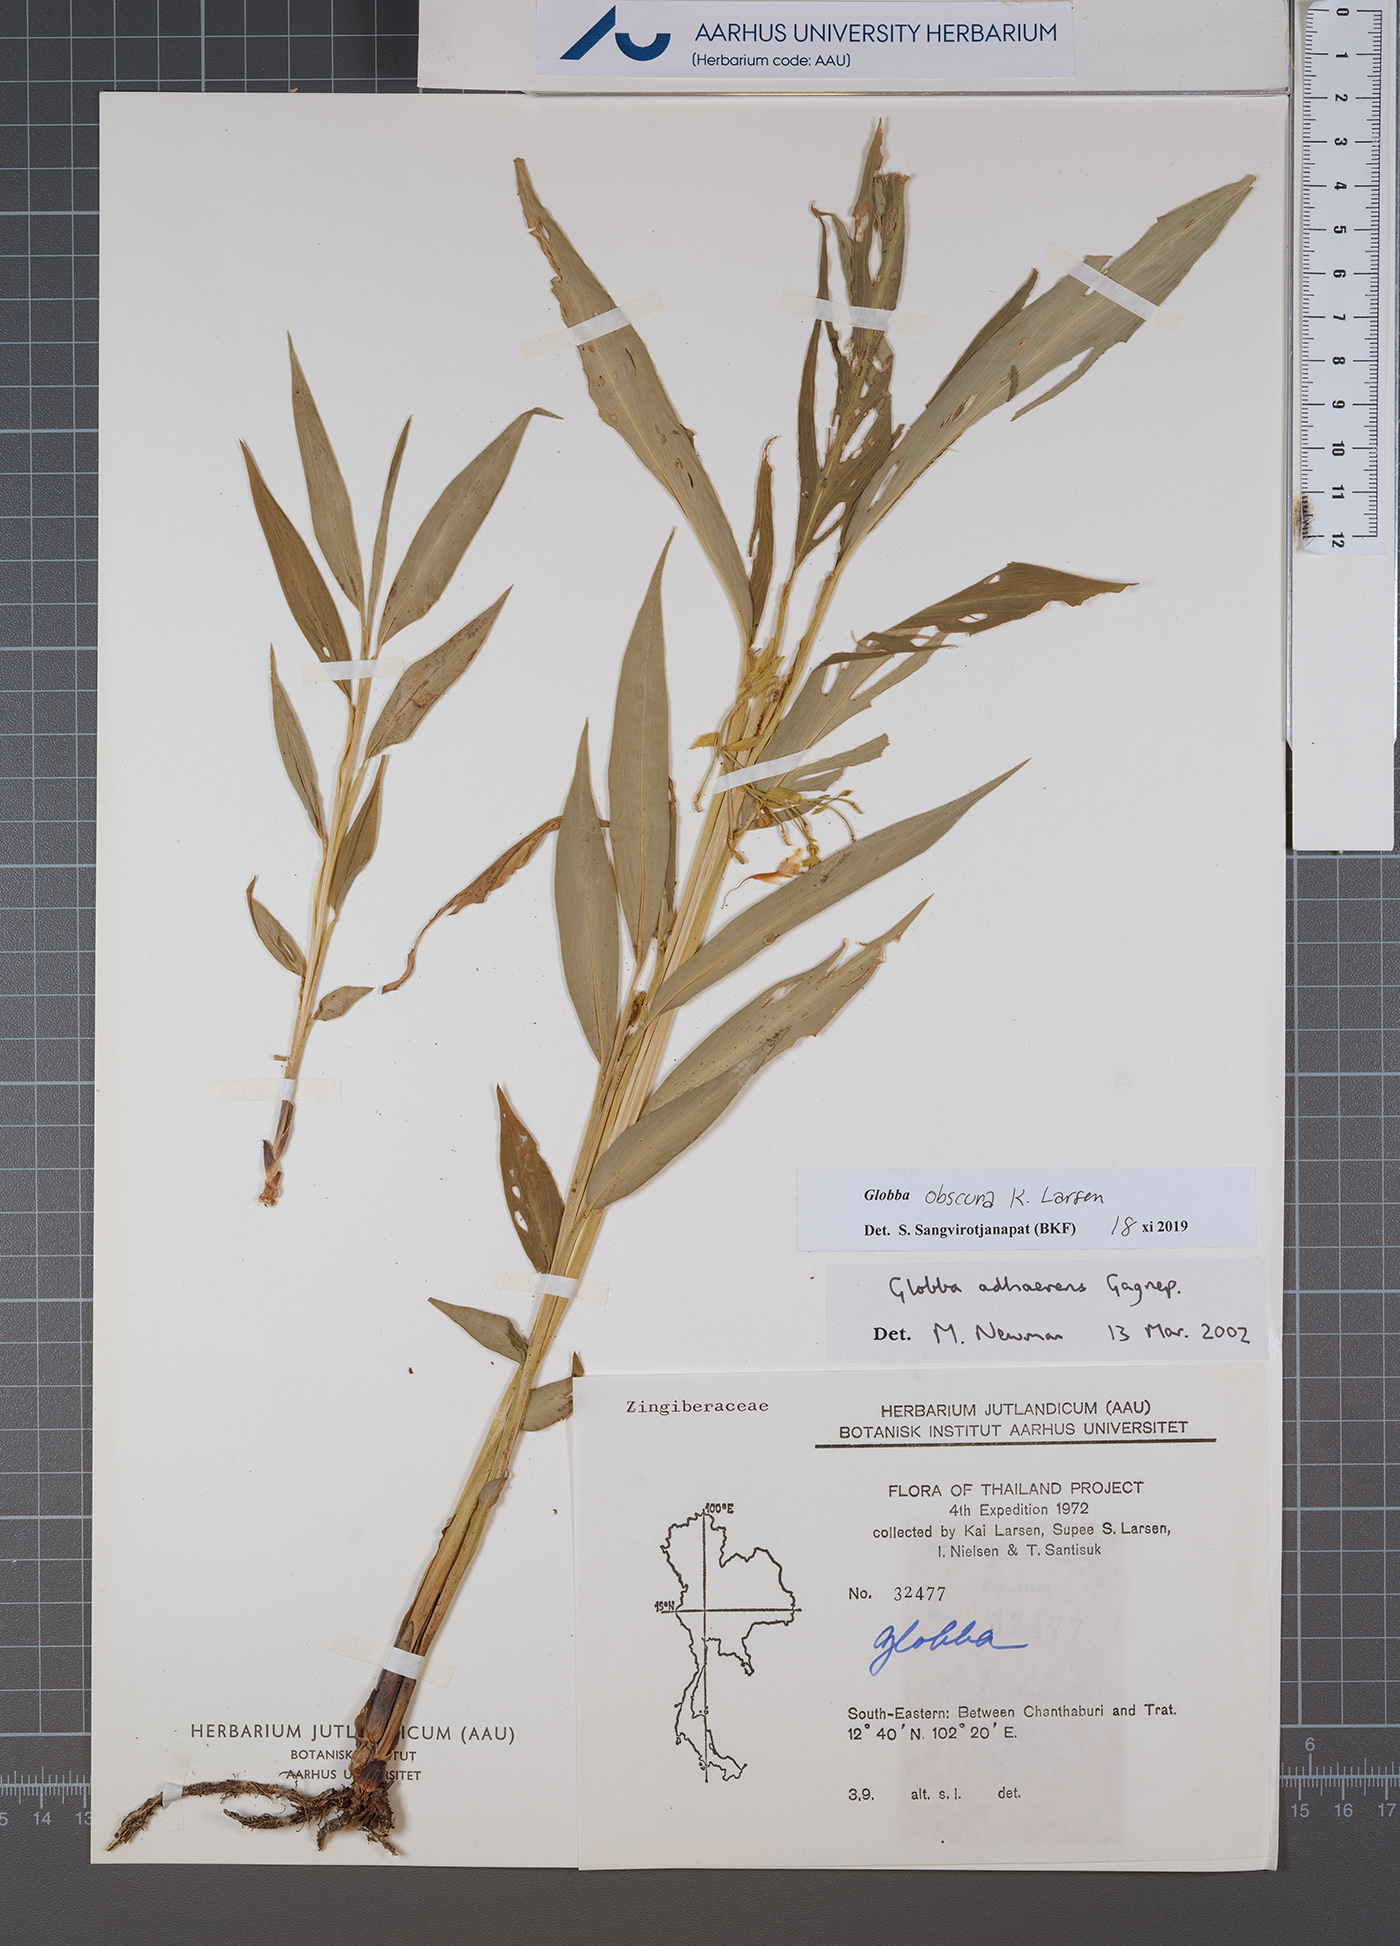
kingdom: Plantae
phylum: Tracheophyta
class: Liliopsida
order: Zingiberales
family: Zingiberaceae
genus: Globba
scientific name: Globba obscura
